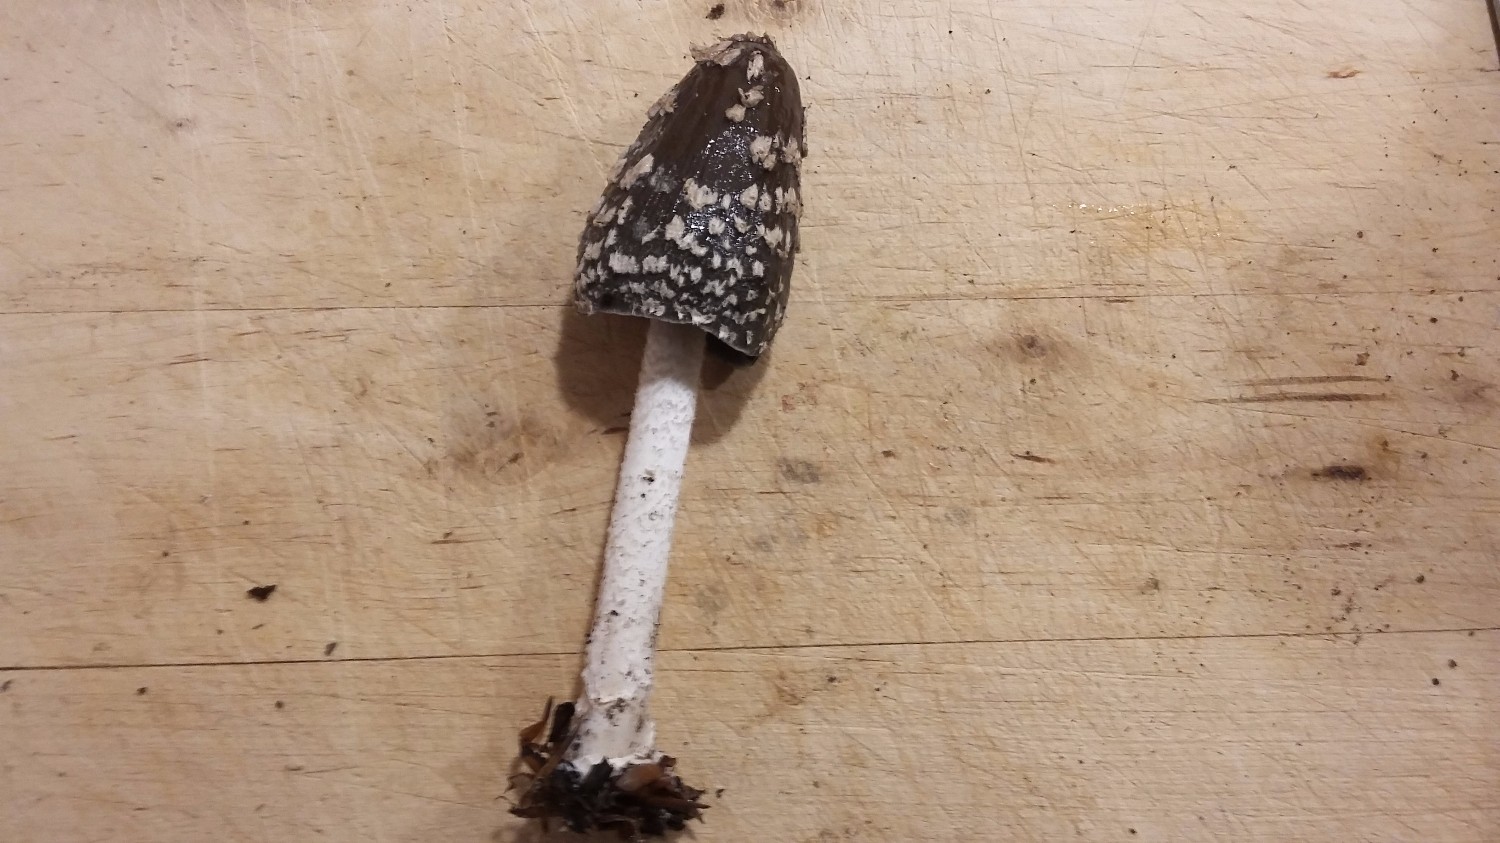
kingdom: Fungi
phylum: Basidiomycota
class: Agaricomycetes
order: Agaricales
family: Psathyrellaceae
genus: Coprinopsis
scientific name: Coprinopsis picacea
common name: skade-blækhat
